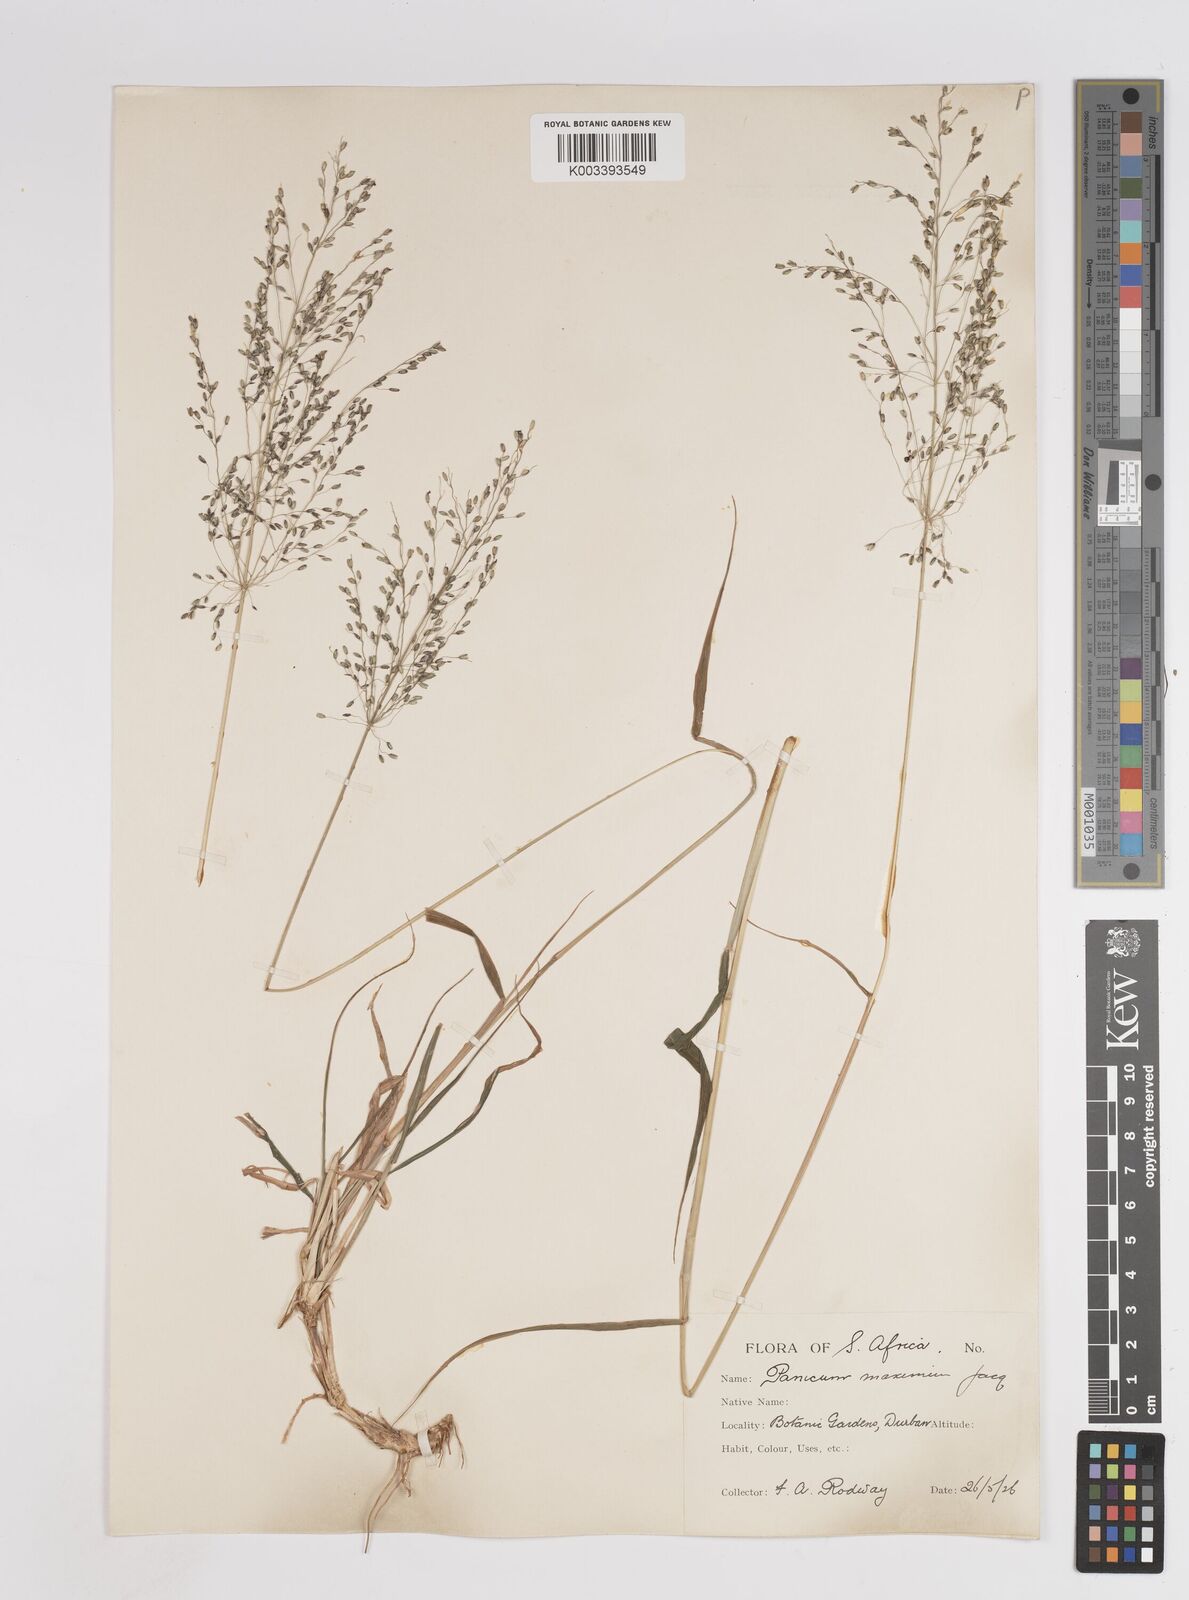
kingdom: Plantae
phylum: Tracheophyta
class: Liliopsida
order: Poales
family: Poaceae
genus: Megathyrsus
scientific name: Megathyrsus maximus
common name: Guineagrass
